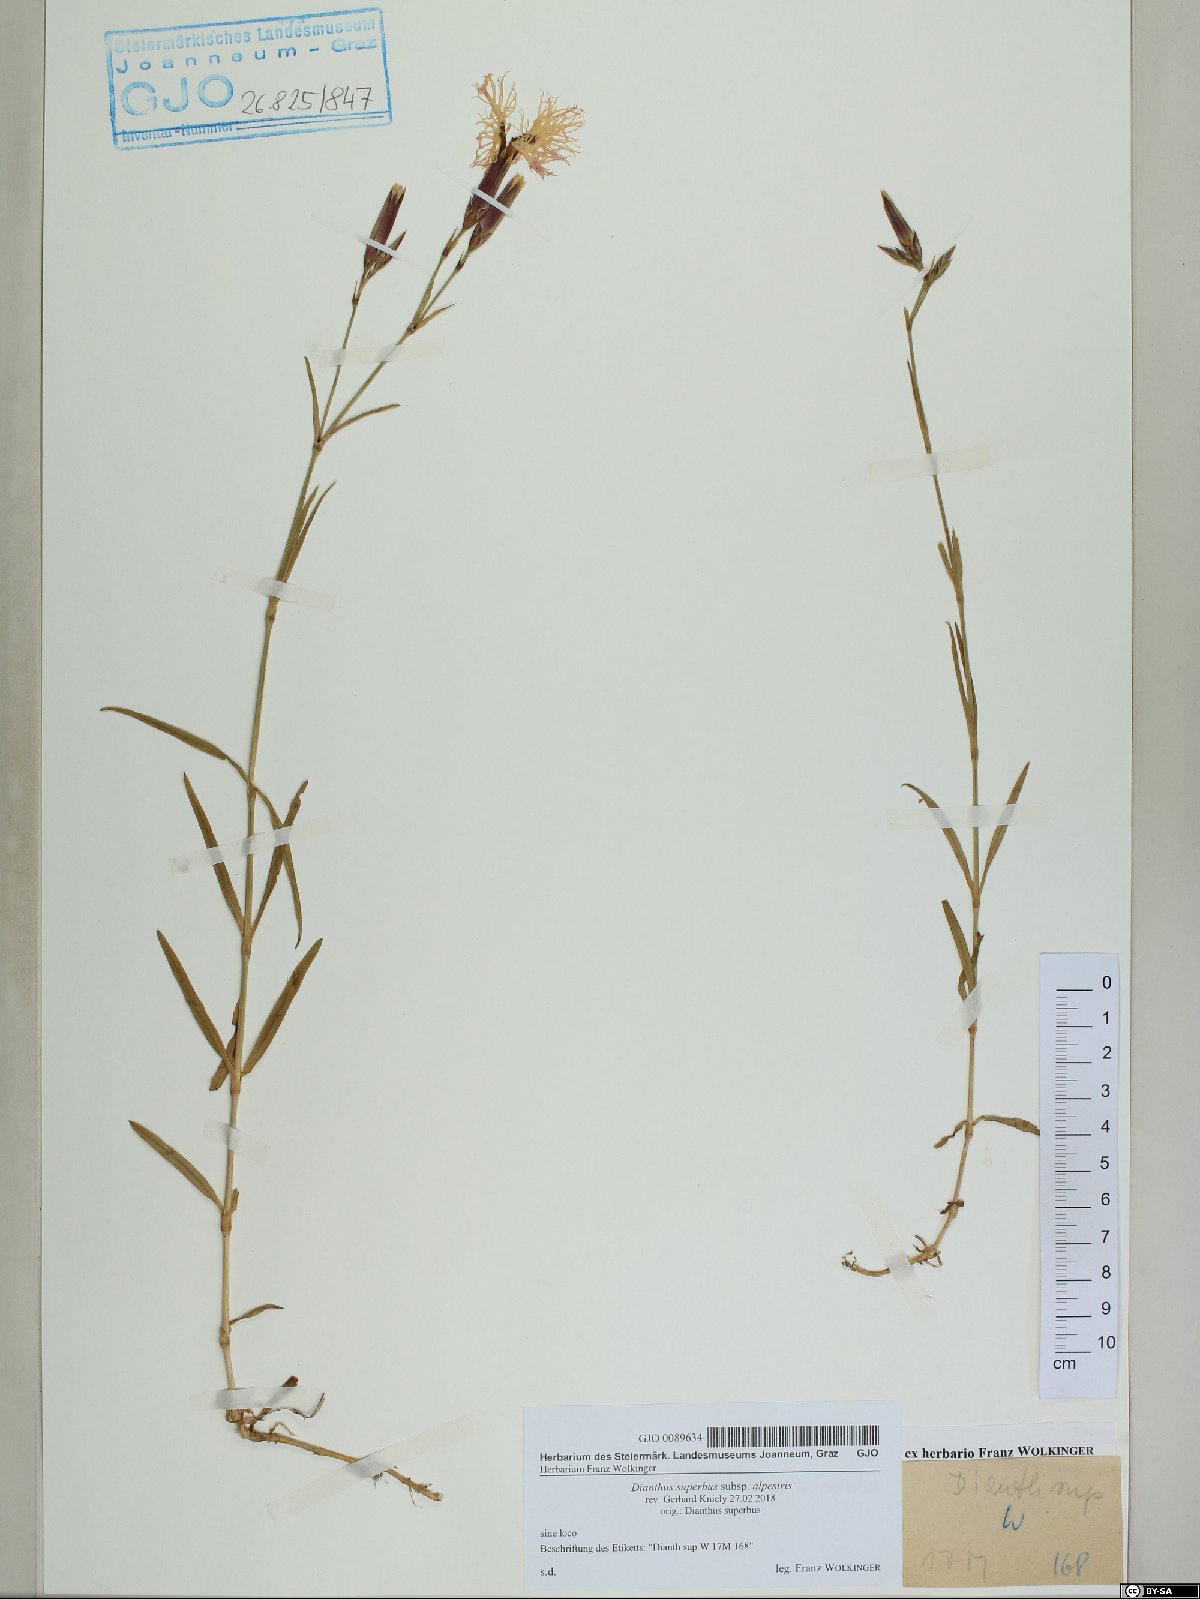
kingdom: Plantae
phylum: Tracheophyta
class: Magnoliopsida
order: Caryophyllales
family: Caryophyllaceae
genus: Dianthus
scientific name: Dianthus superbus
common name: Fringed pink
